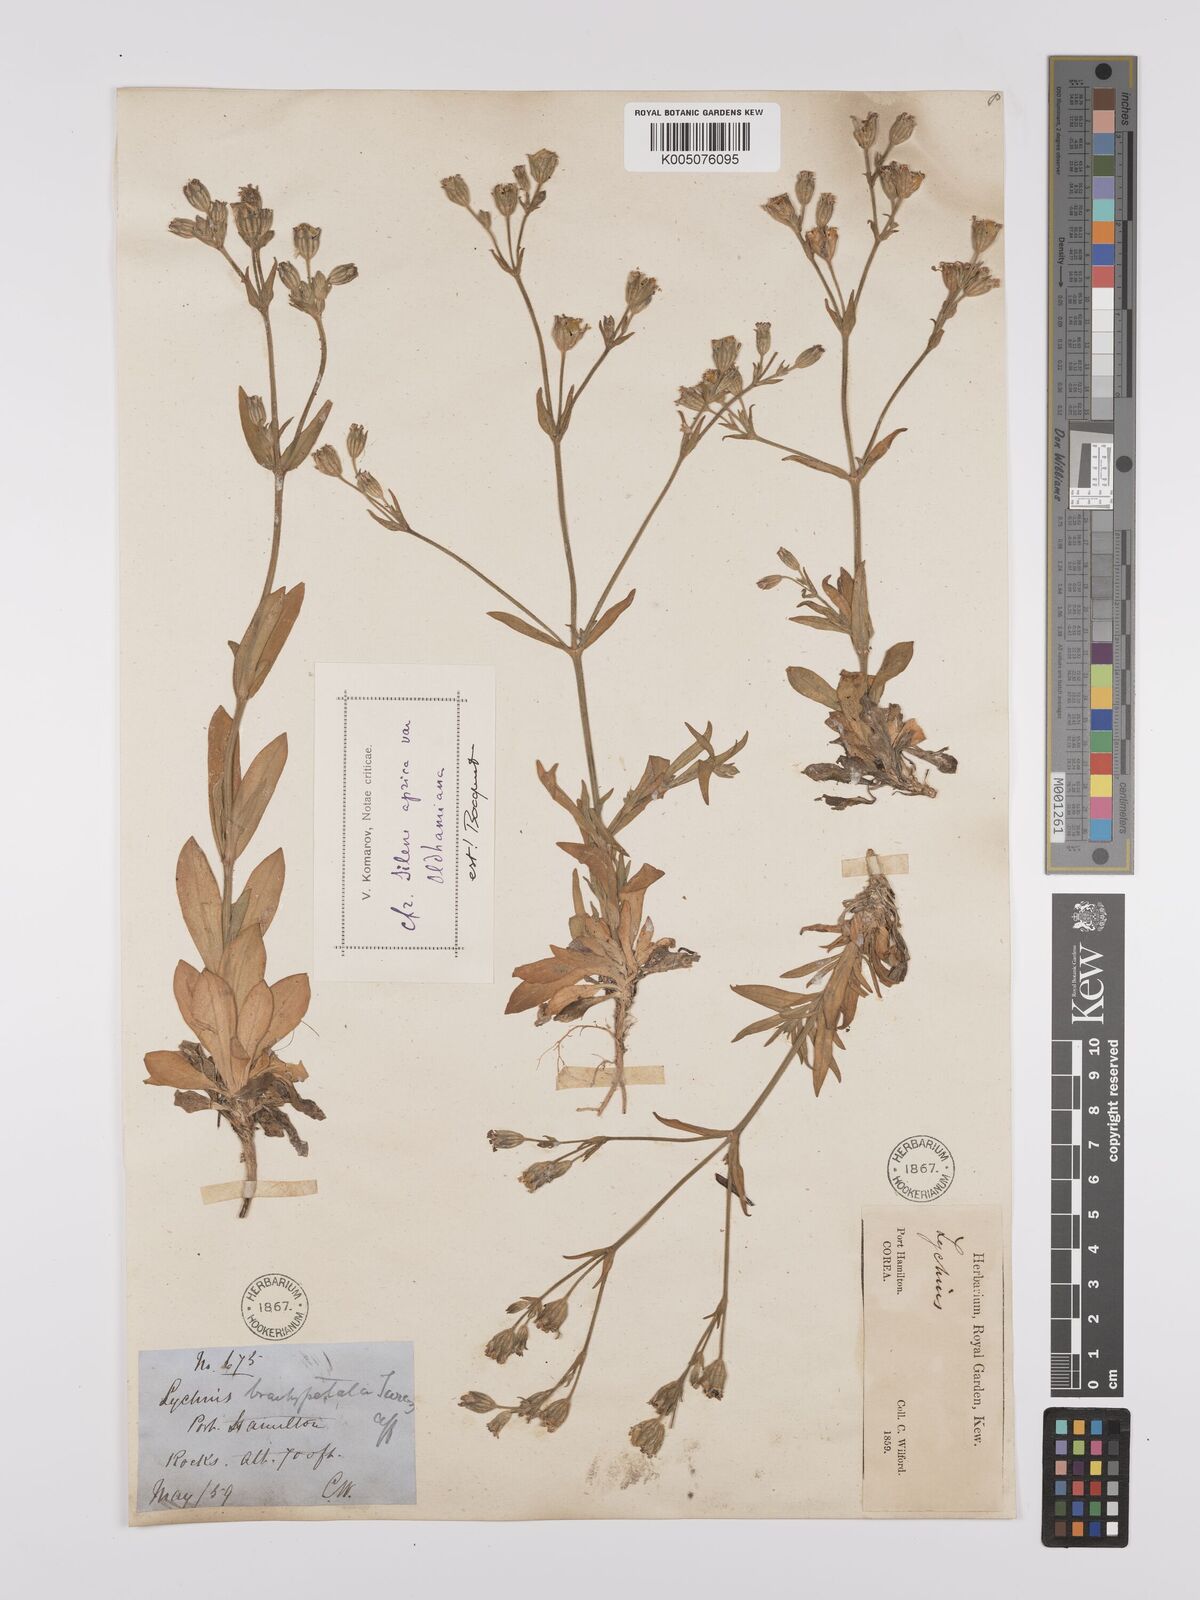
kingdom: Plantae
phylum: Tracheophyta
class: Magnoliopsida
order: Caryophyllales
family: Caryophyllaceae
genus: Silene
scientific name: Silene aprica
